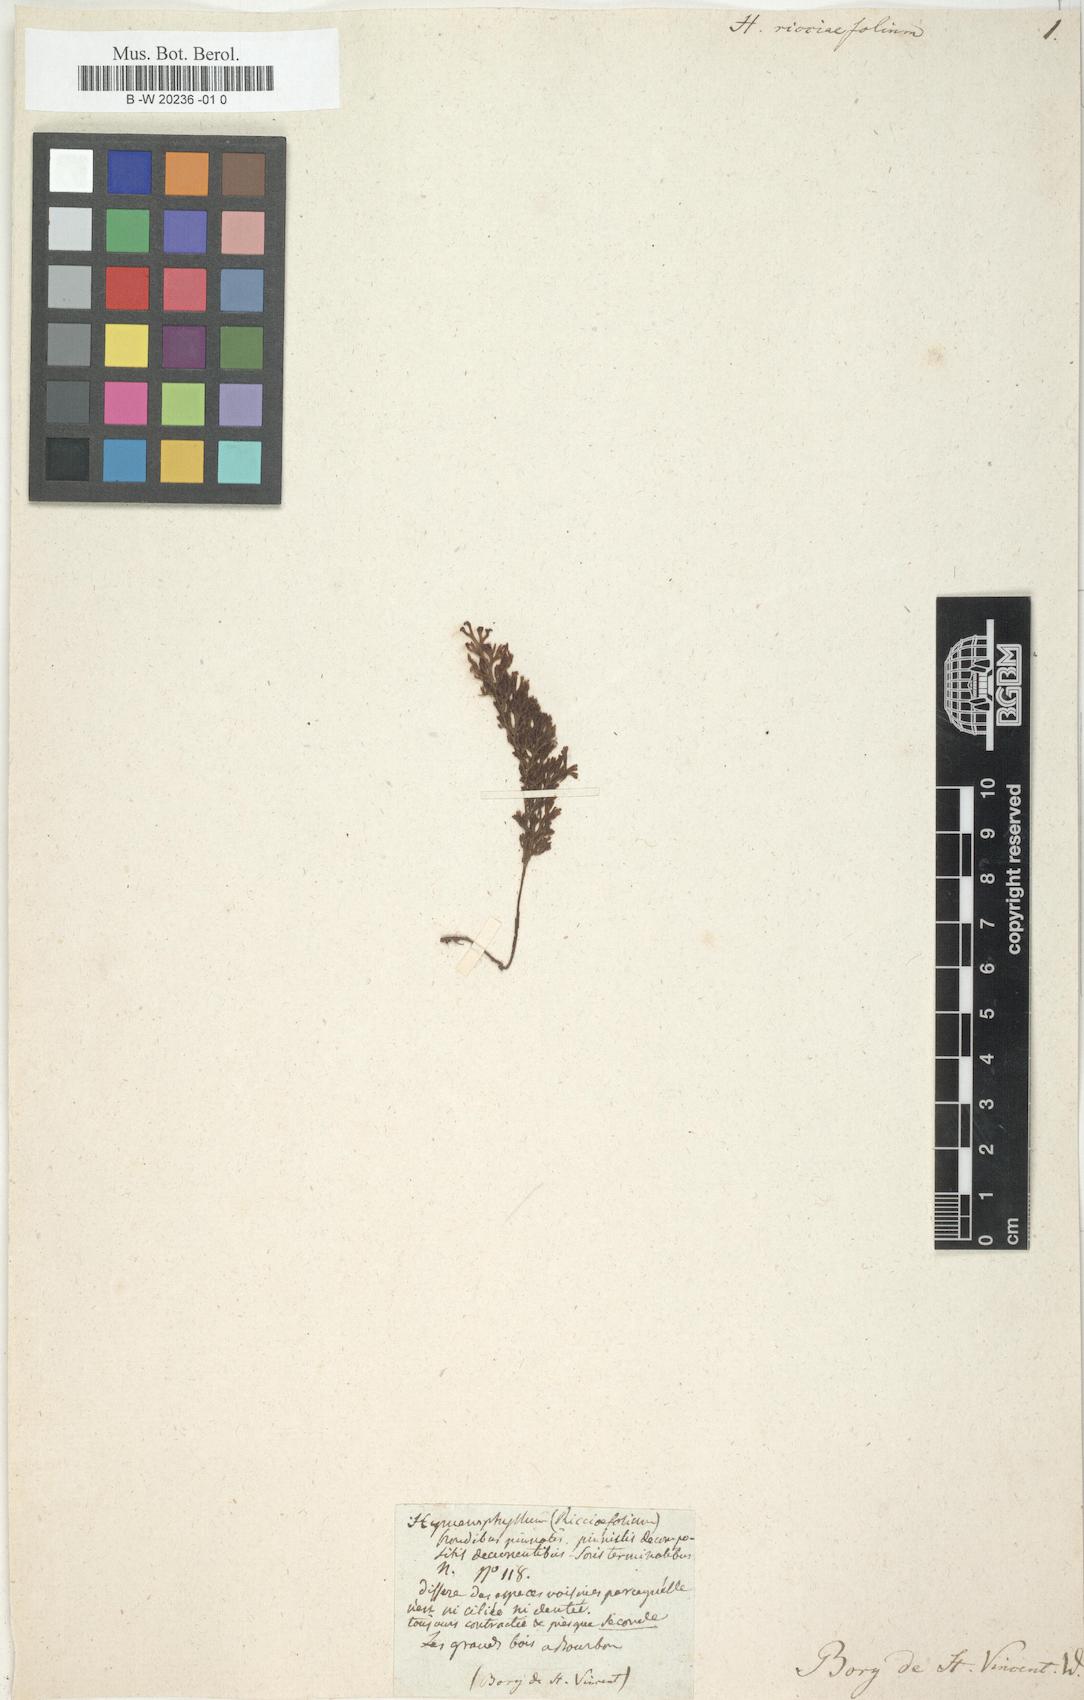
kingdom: Plantae
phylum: Tracheophyta
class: Polypodiopsida
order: Hymenophyllales
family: Hymenophyllaceae
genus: Hymenophyllum
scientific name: Hymenophyllum fumarioides
